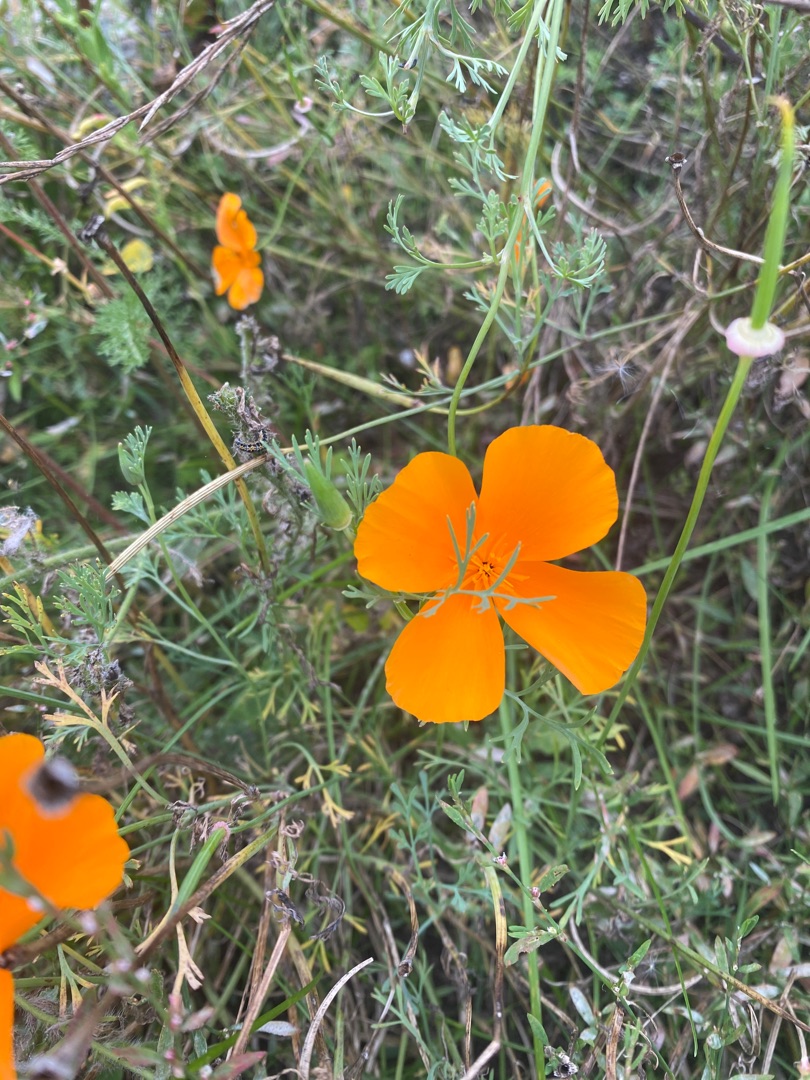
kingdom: Plantae
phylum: Tracheophyta
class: Magnoliopsida
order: Ranunculales
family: Papaveraceae
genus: Eschscholzia
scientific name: Eschscholzia californica
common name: Guldvalmue
